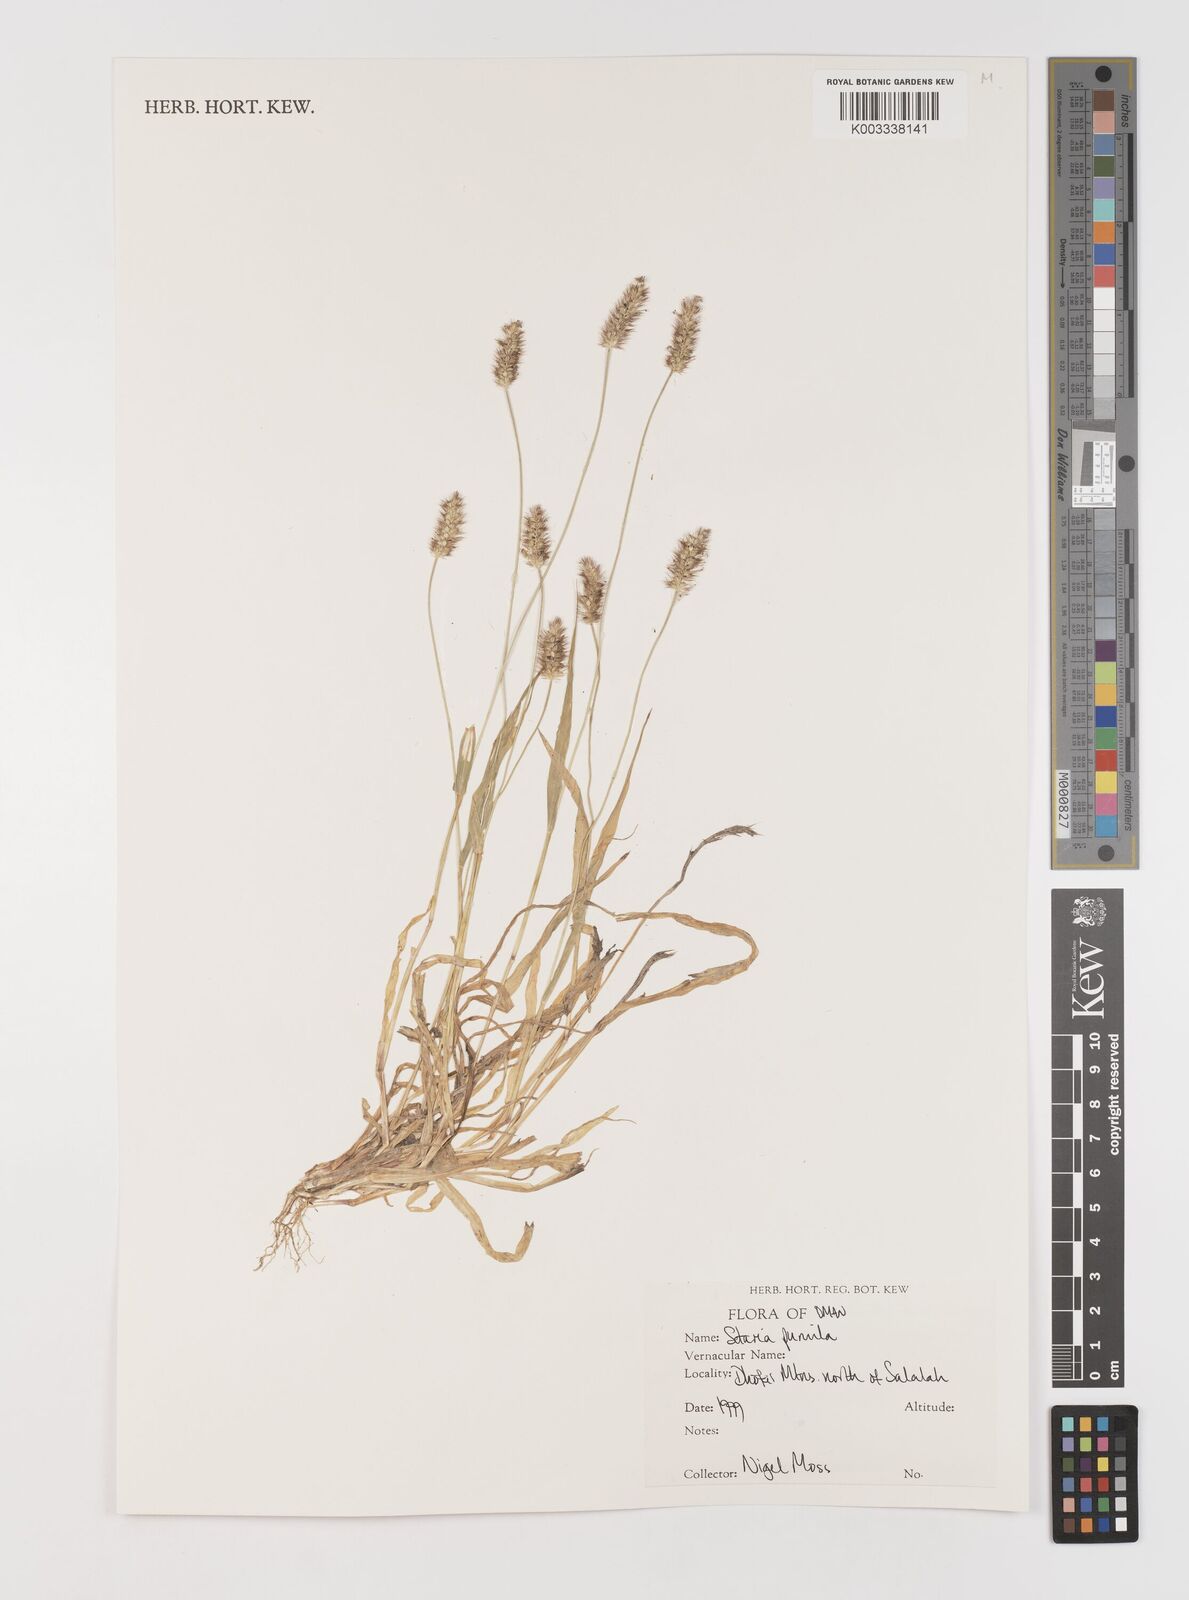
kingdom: Plantae
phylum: Tracheophyta
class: Liliopsida
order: Poales
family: Poaceae
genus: Setaria
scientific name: Setaria pumila
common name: Yellow bristle-grass
